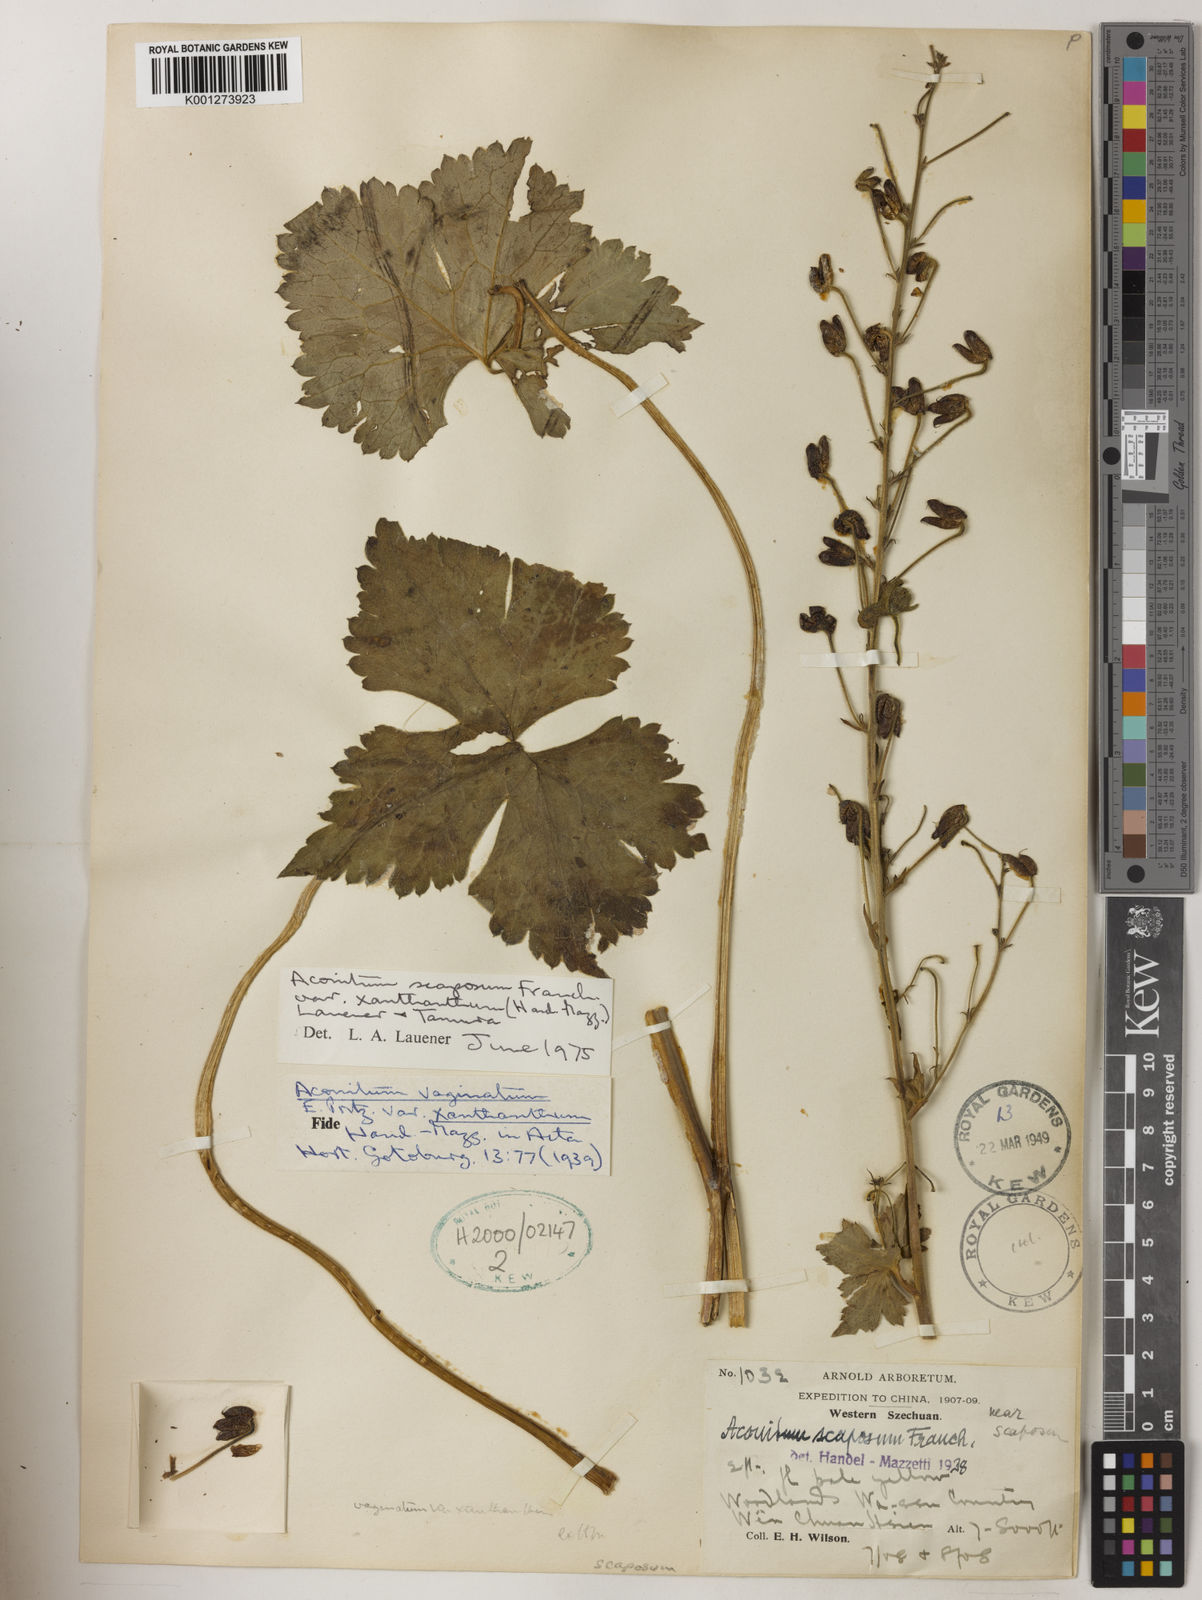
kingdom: Plantae
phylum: Tracheophyta
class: Magnoliopsida
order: Ranunculales
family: Ranunculaceae
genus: Aconitum
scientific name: Aconitum
